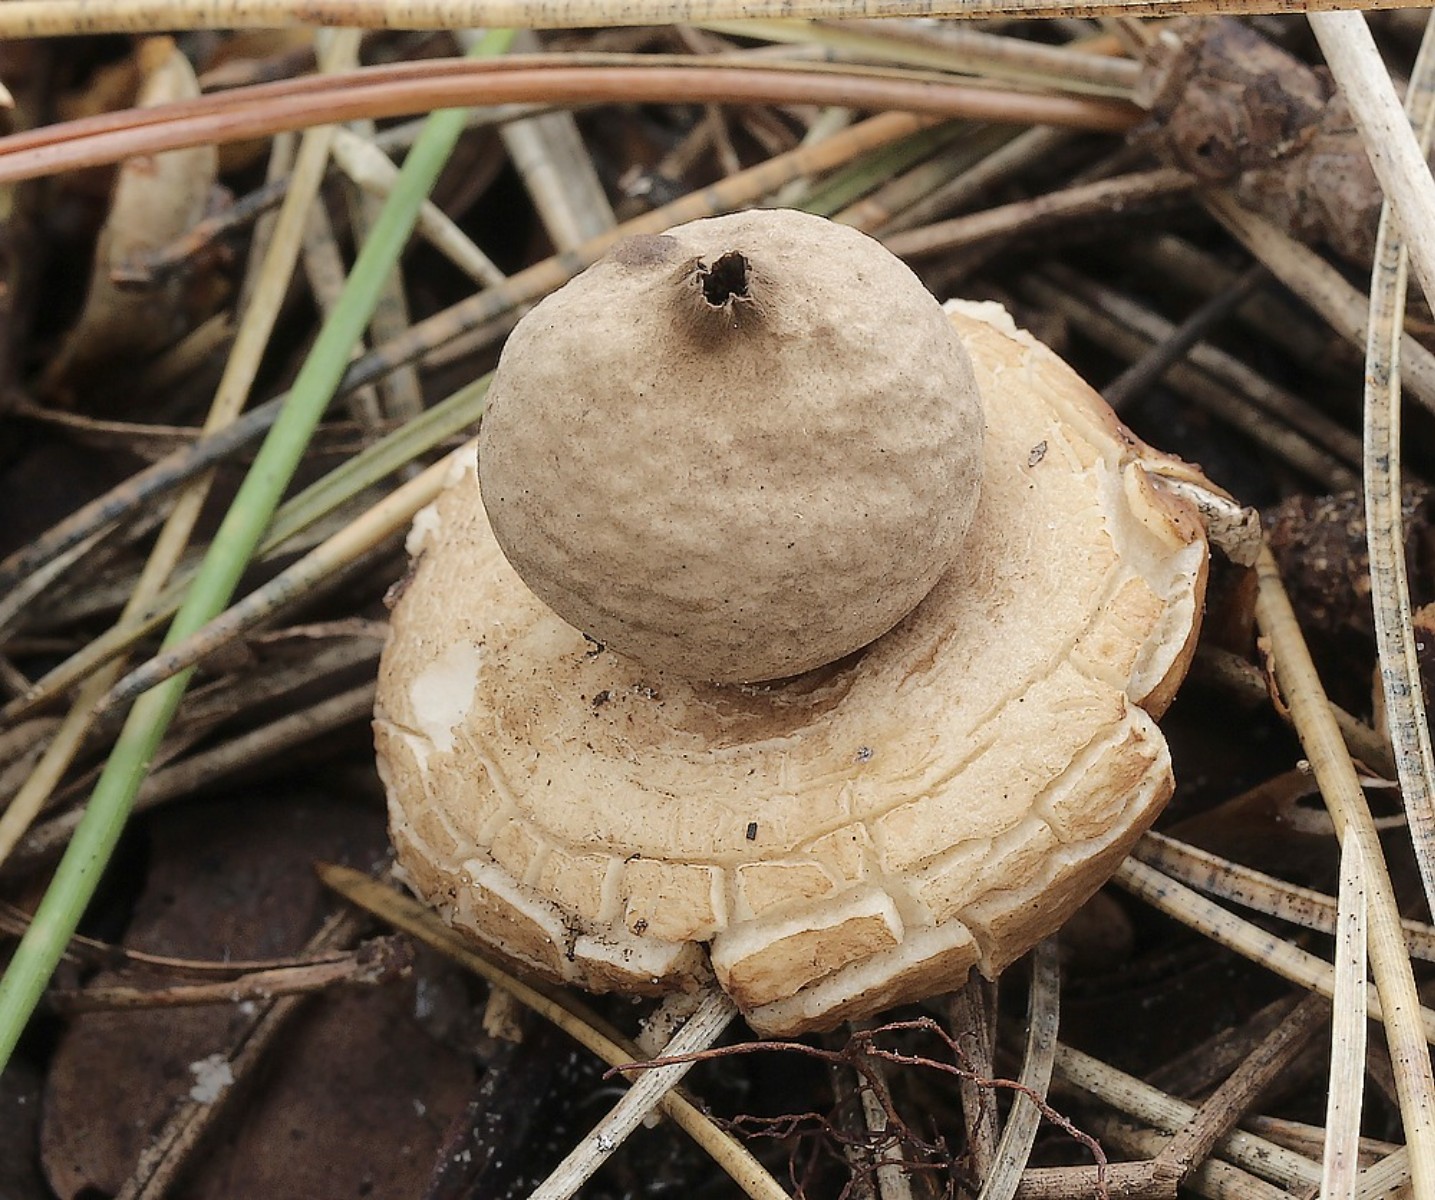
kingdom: Fungi
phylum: Basidiomycota
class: Agaricomycetes
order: Geastrales
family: Geastraceae
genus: Geastrum
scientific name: Geastrum fimbriatum
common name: frynset stjernebold
